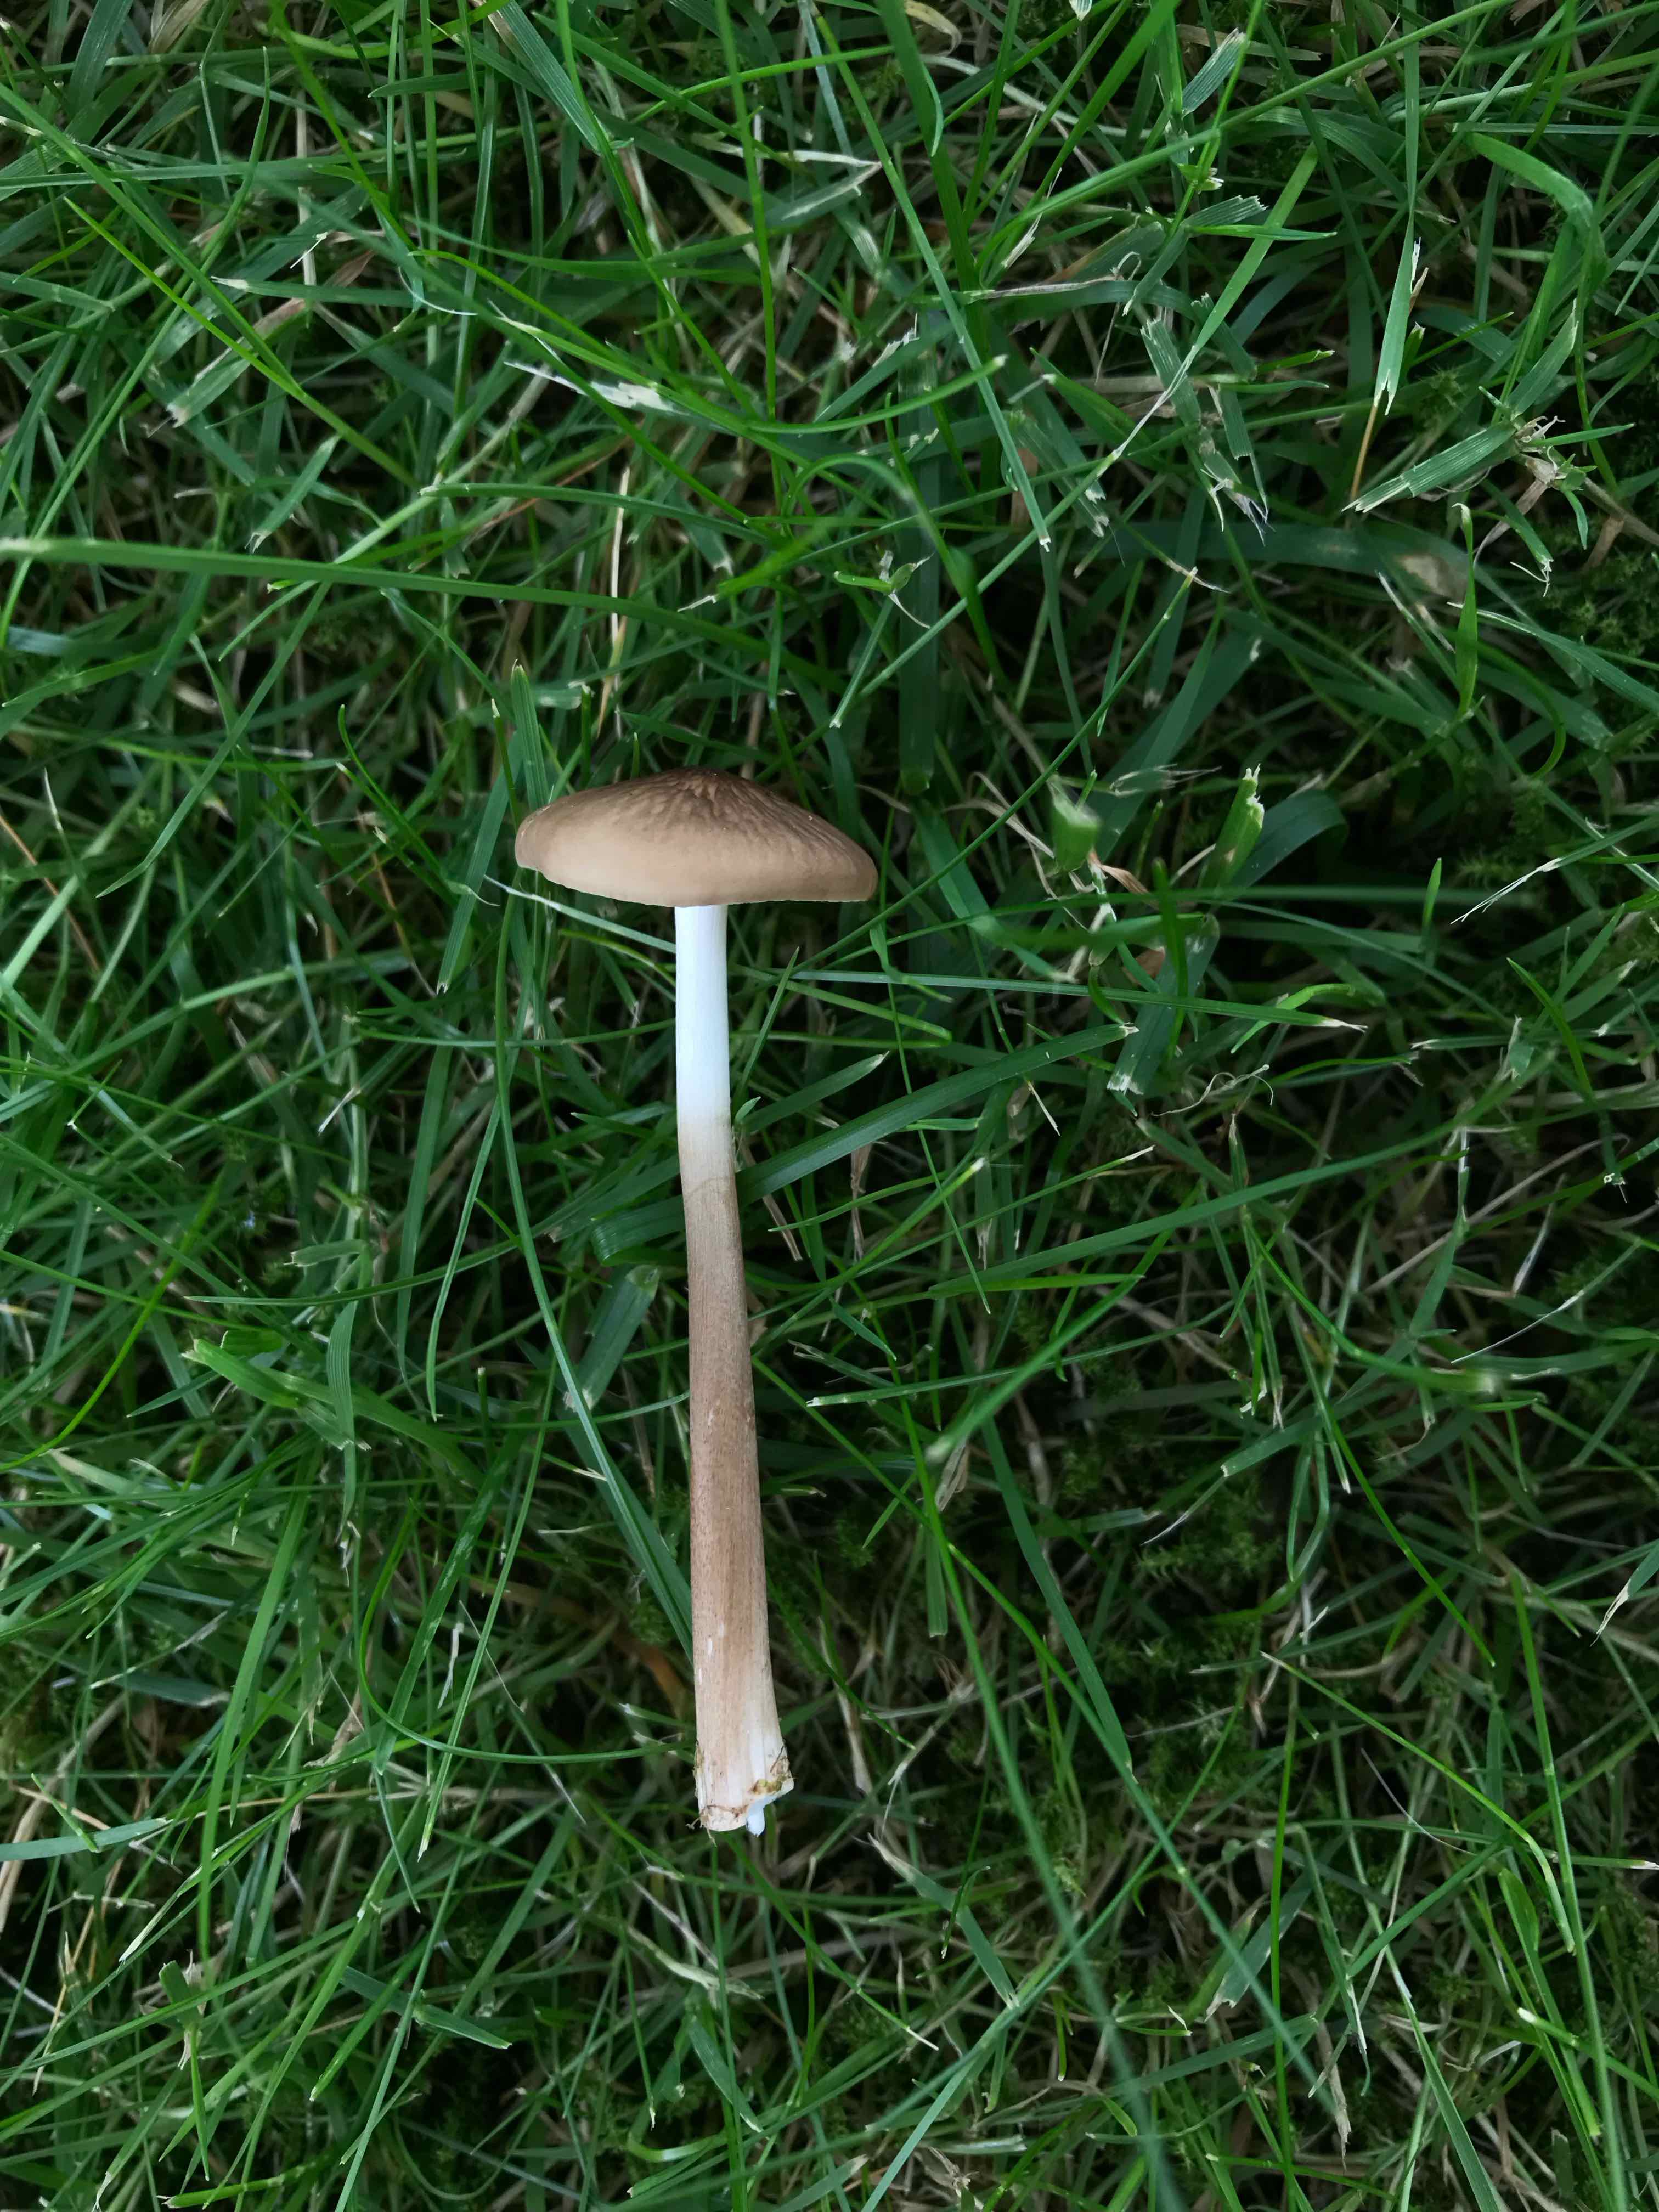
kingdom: Fungi
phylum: Basidiomycota
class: Agaricomycetes
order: Agaricales
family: Physalacriaceae
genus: Hymenopellis
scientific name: Hymenopellis radicata
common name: almindelig pælerodshat
